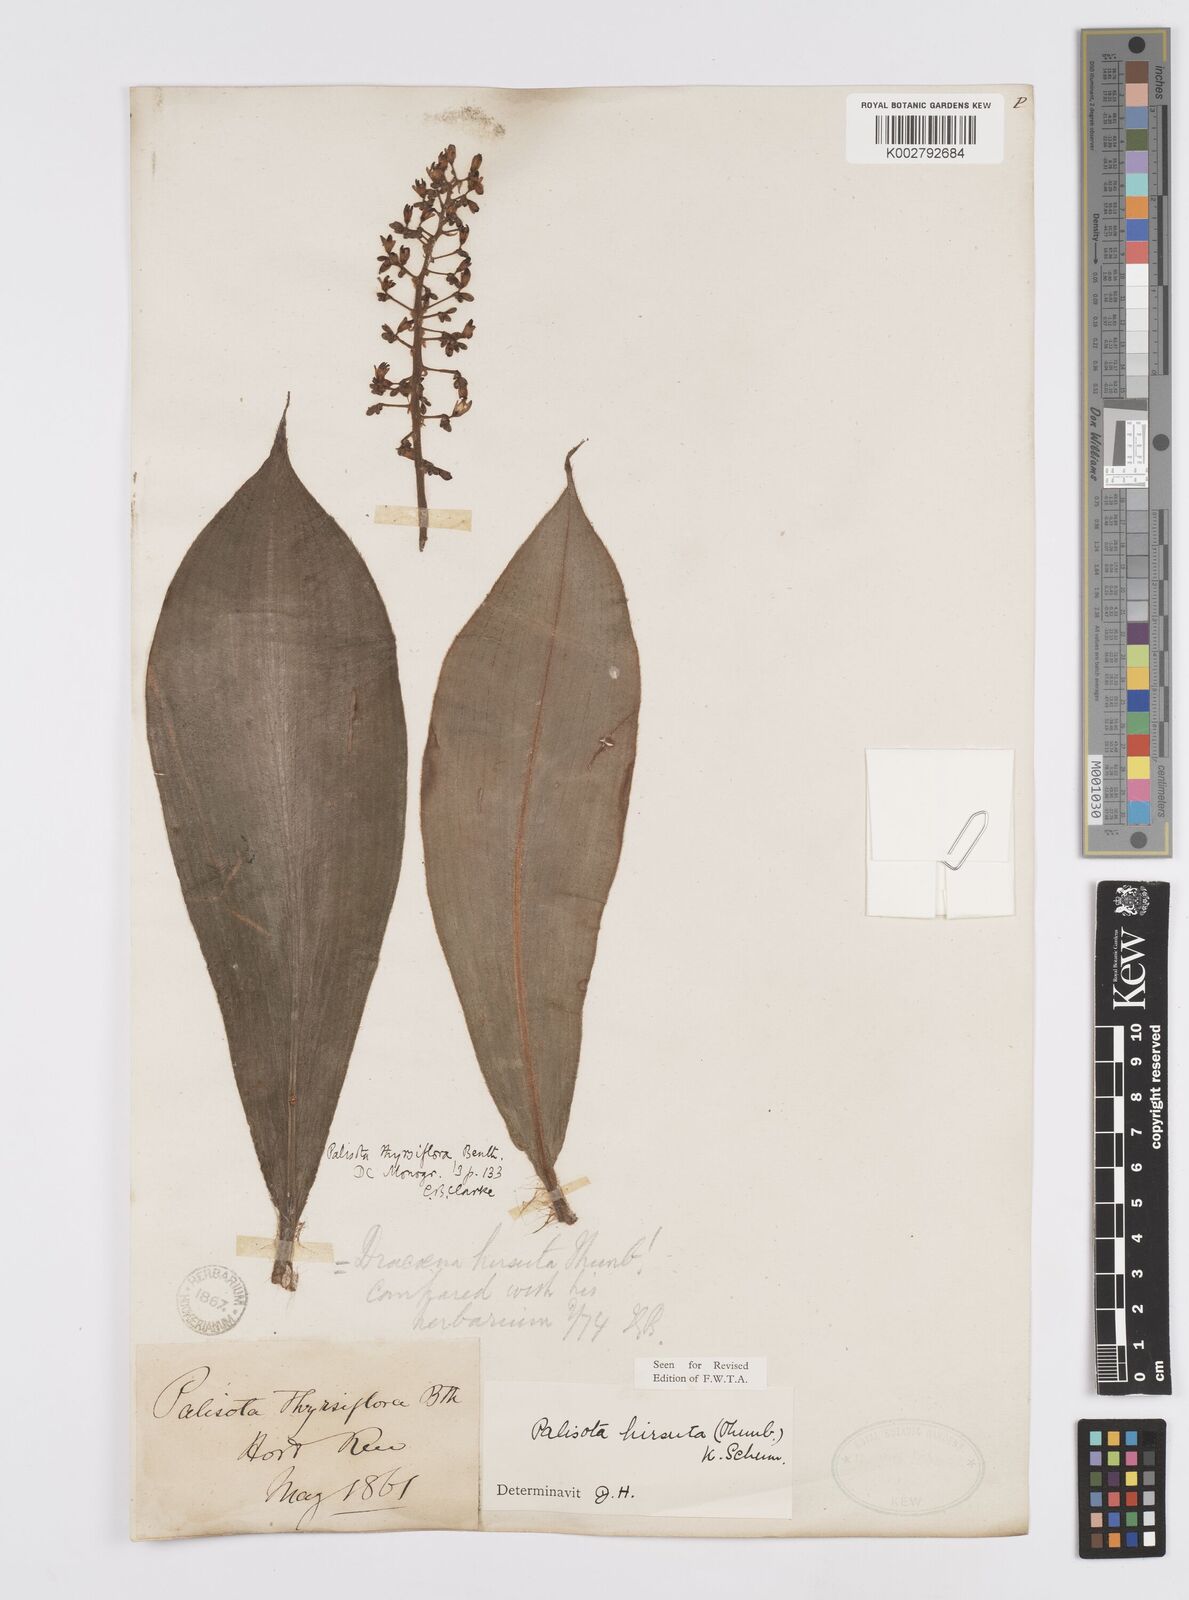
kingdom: Plantae
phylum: Tracheophyta
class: Liliopsida
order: Commelinales
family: Commelinaceae
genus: Palisota
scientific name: Palisota hirsuta
